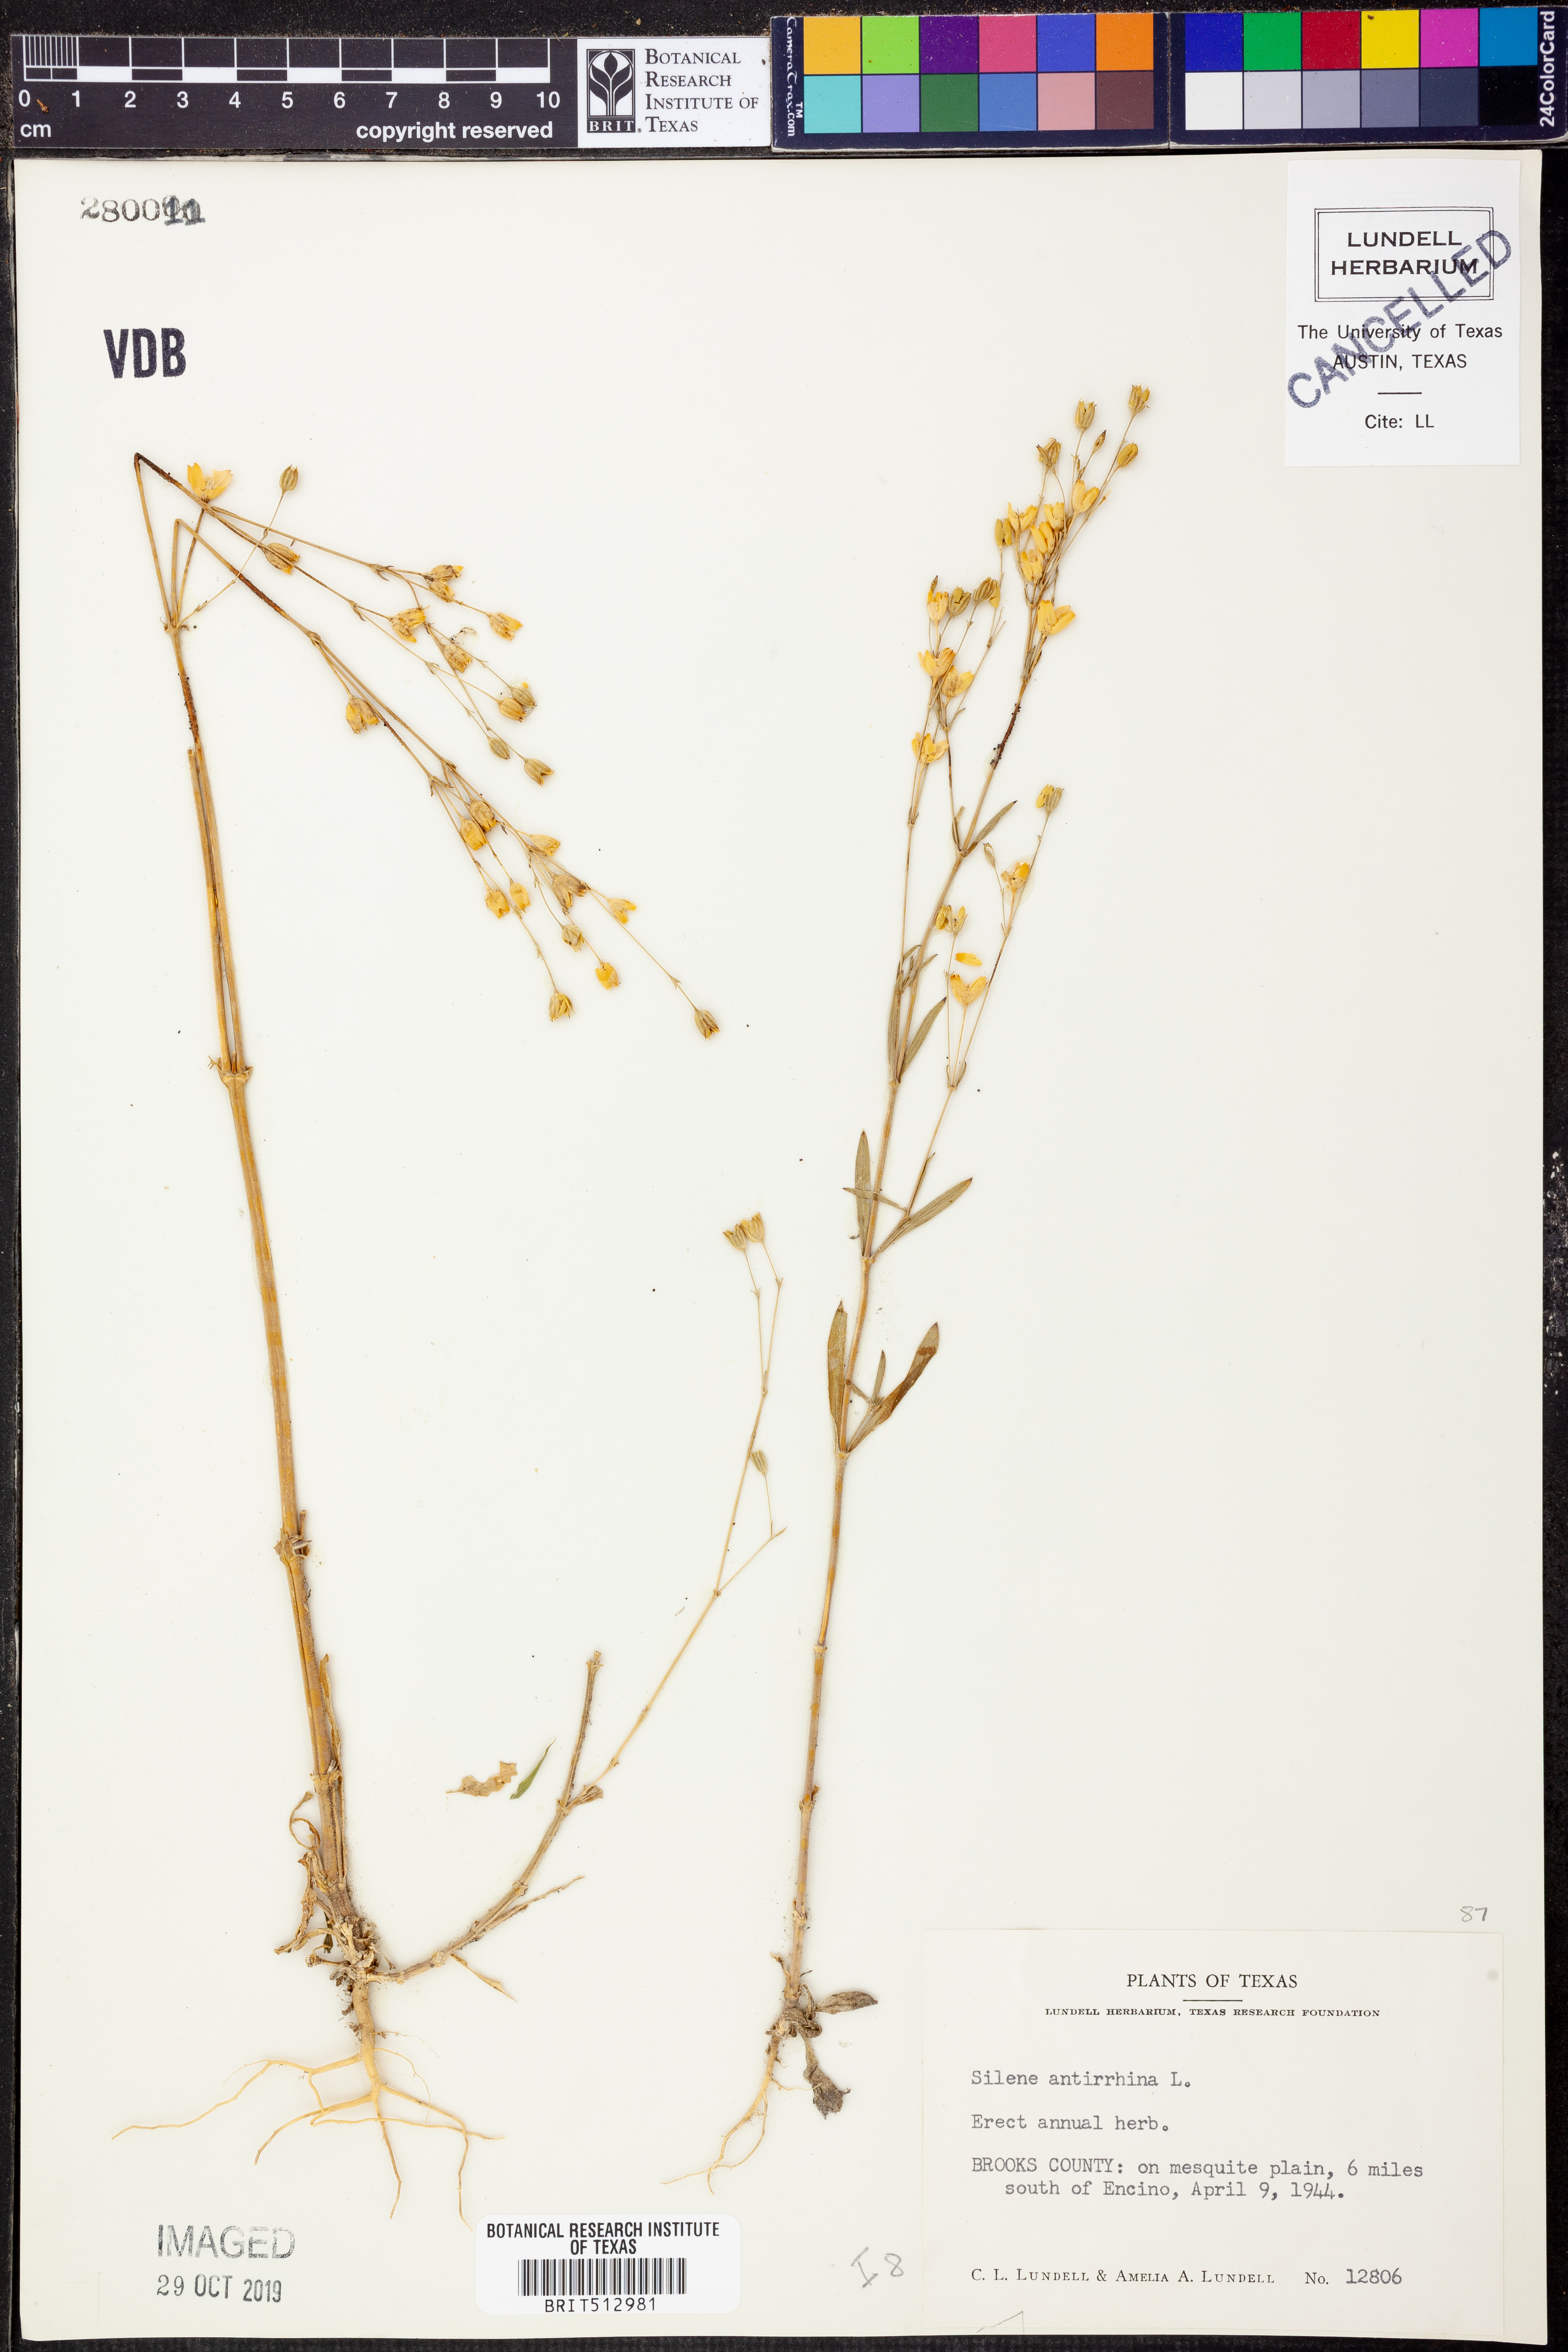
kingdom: Plantae
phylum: Tracheophyta
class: Magnoliopsida
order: Caryophyllales
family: Caryophyllaceae
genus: Silene
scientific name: Silene antirrhina
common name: Sleepy catchfly
